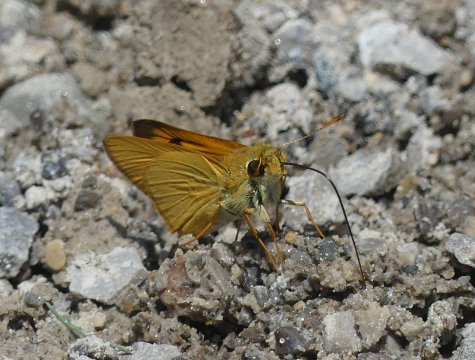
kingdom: Animalia
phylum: Arthropoda
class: Insecta
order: Lepidoptera
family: Hesperiidae
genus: Atrytone
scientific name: Atrytone delaware
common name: Delaware Skipper
